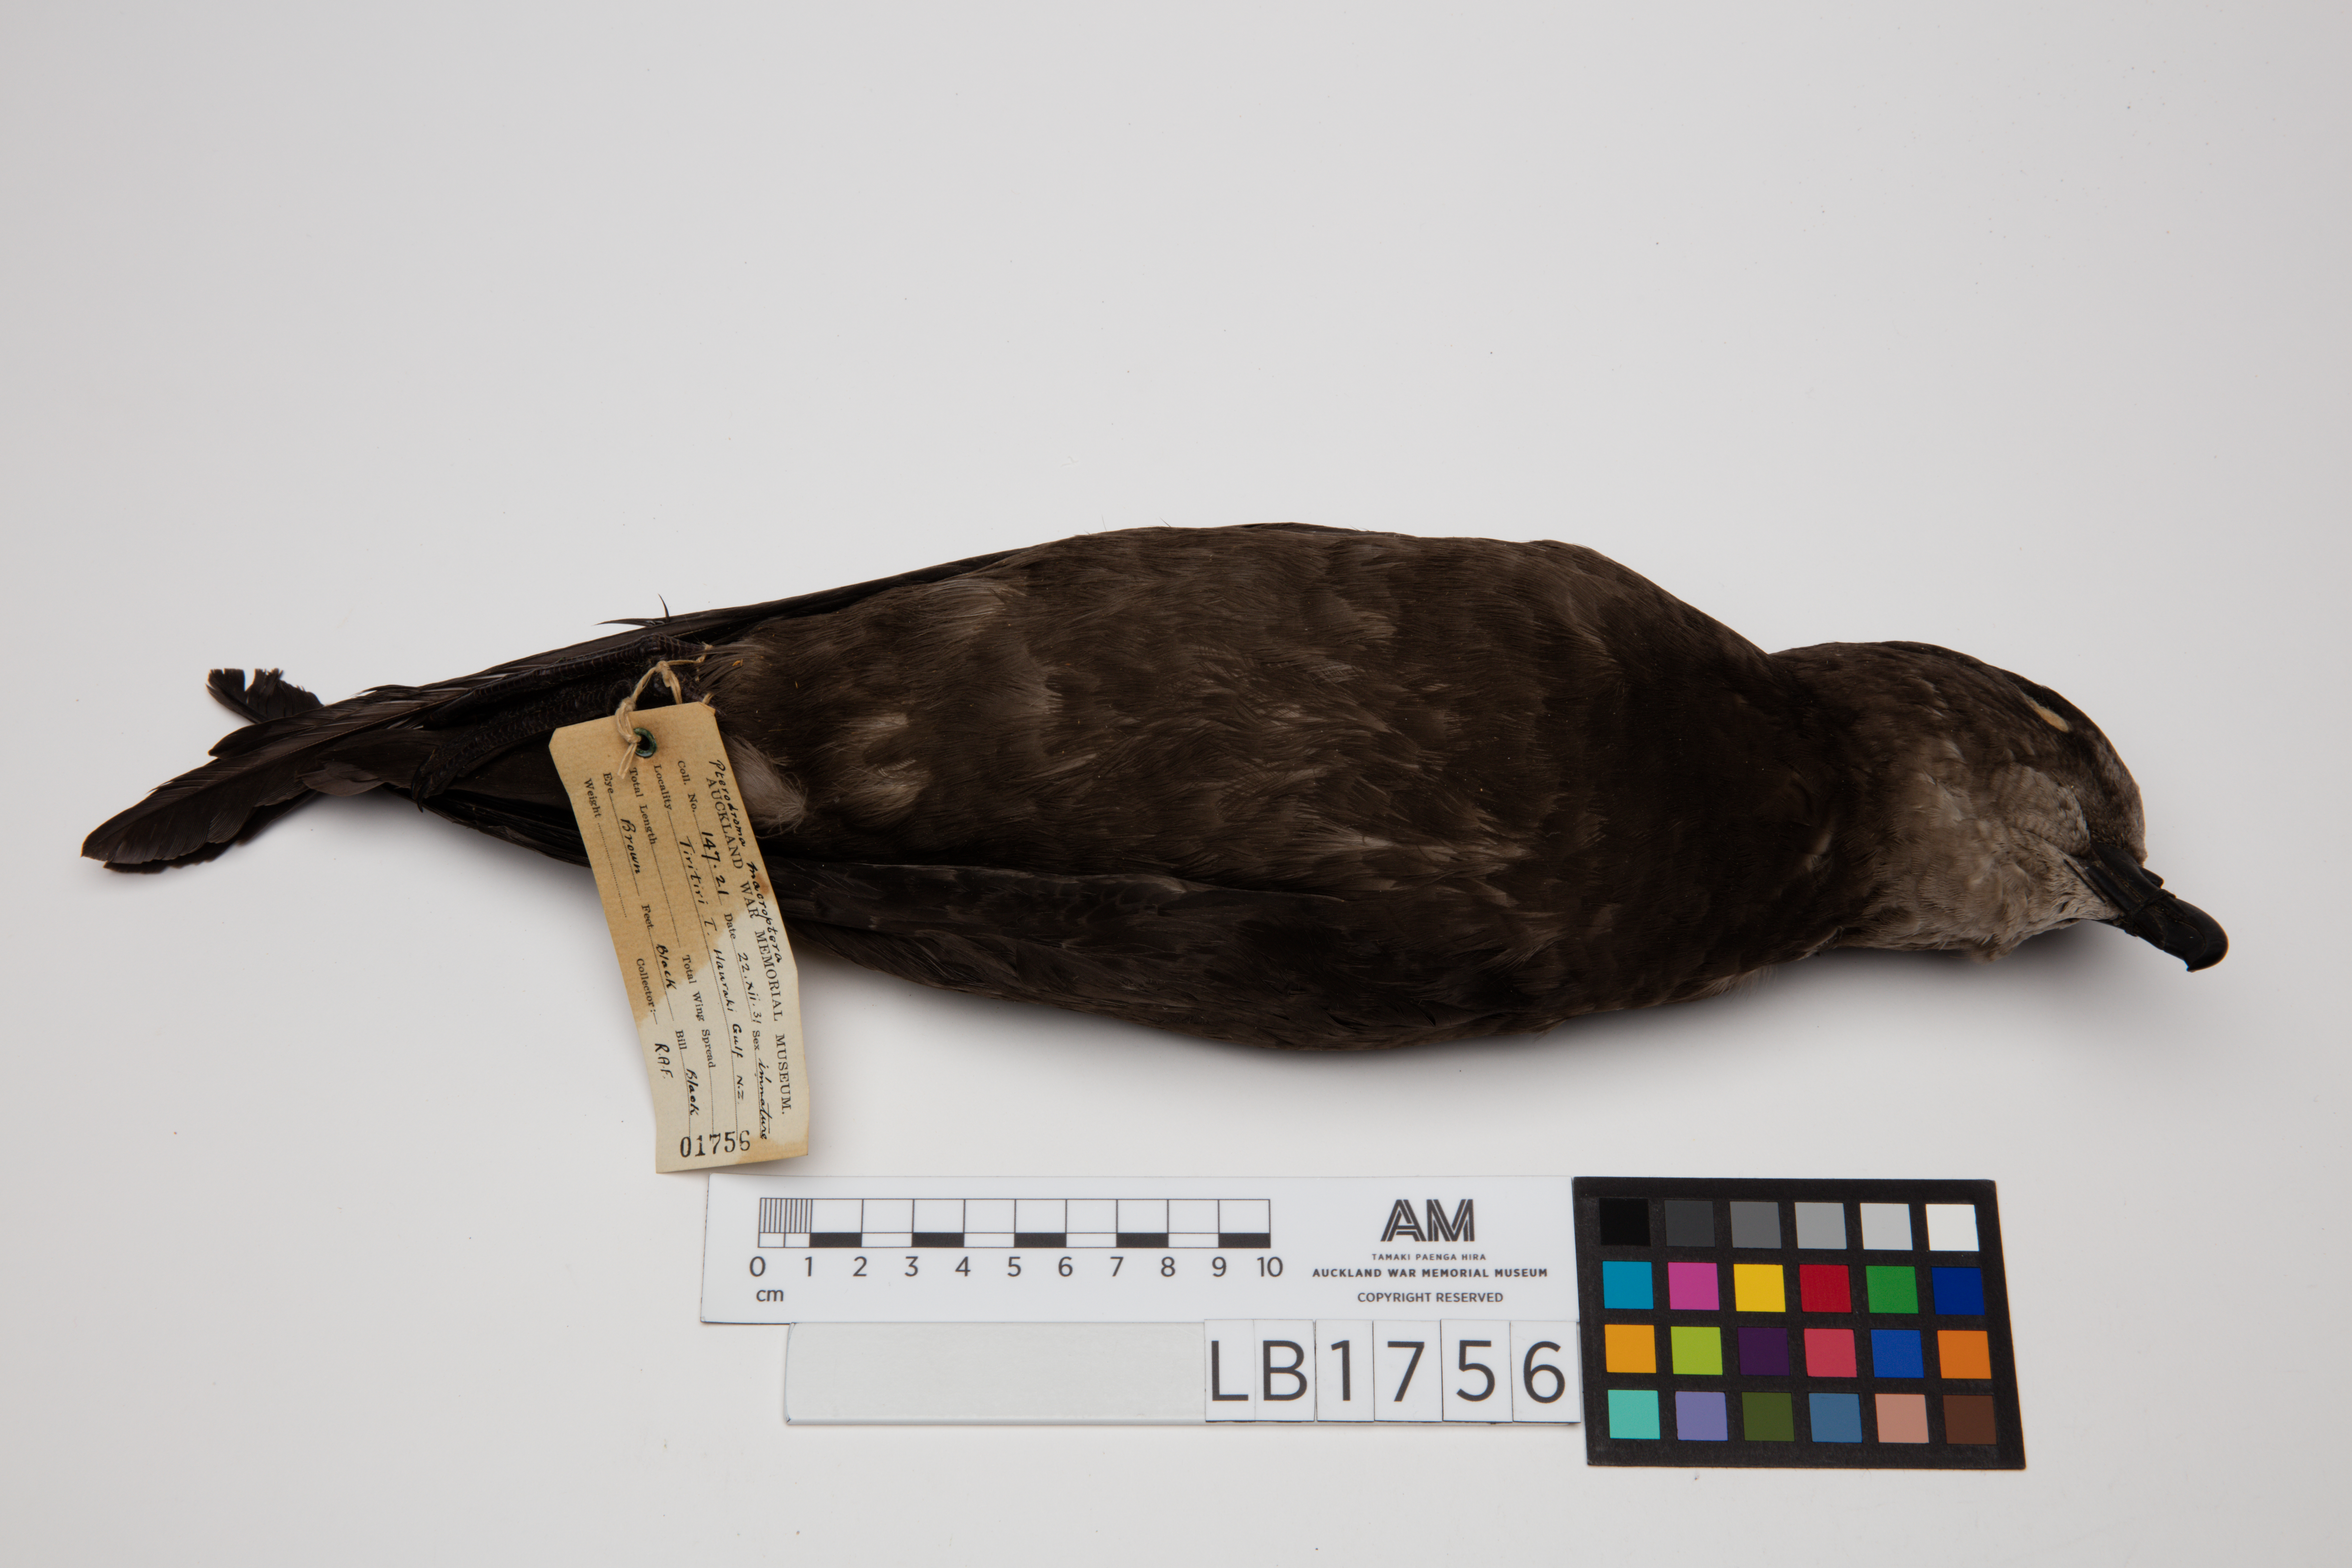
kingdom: Animalia
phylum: Chordata
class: Aves
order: Procellariiformes
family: Procellariidae
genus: Pterodroma
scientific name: Pterodroma macroptera
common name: Great-winged petrel
